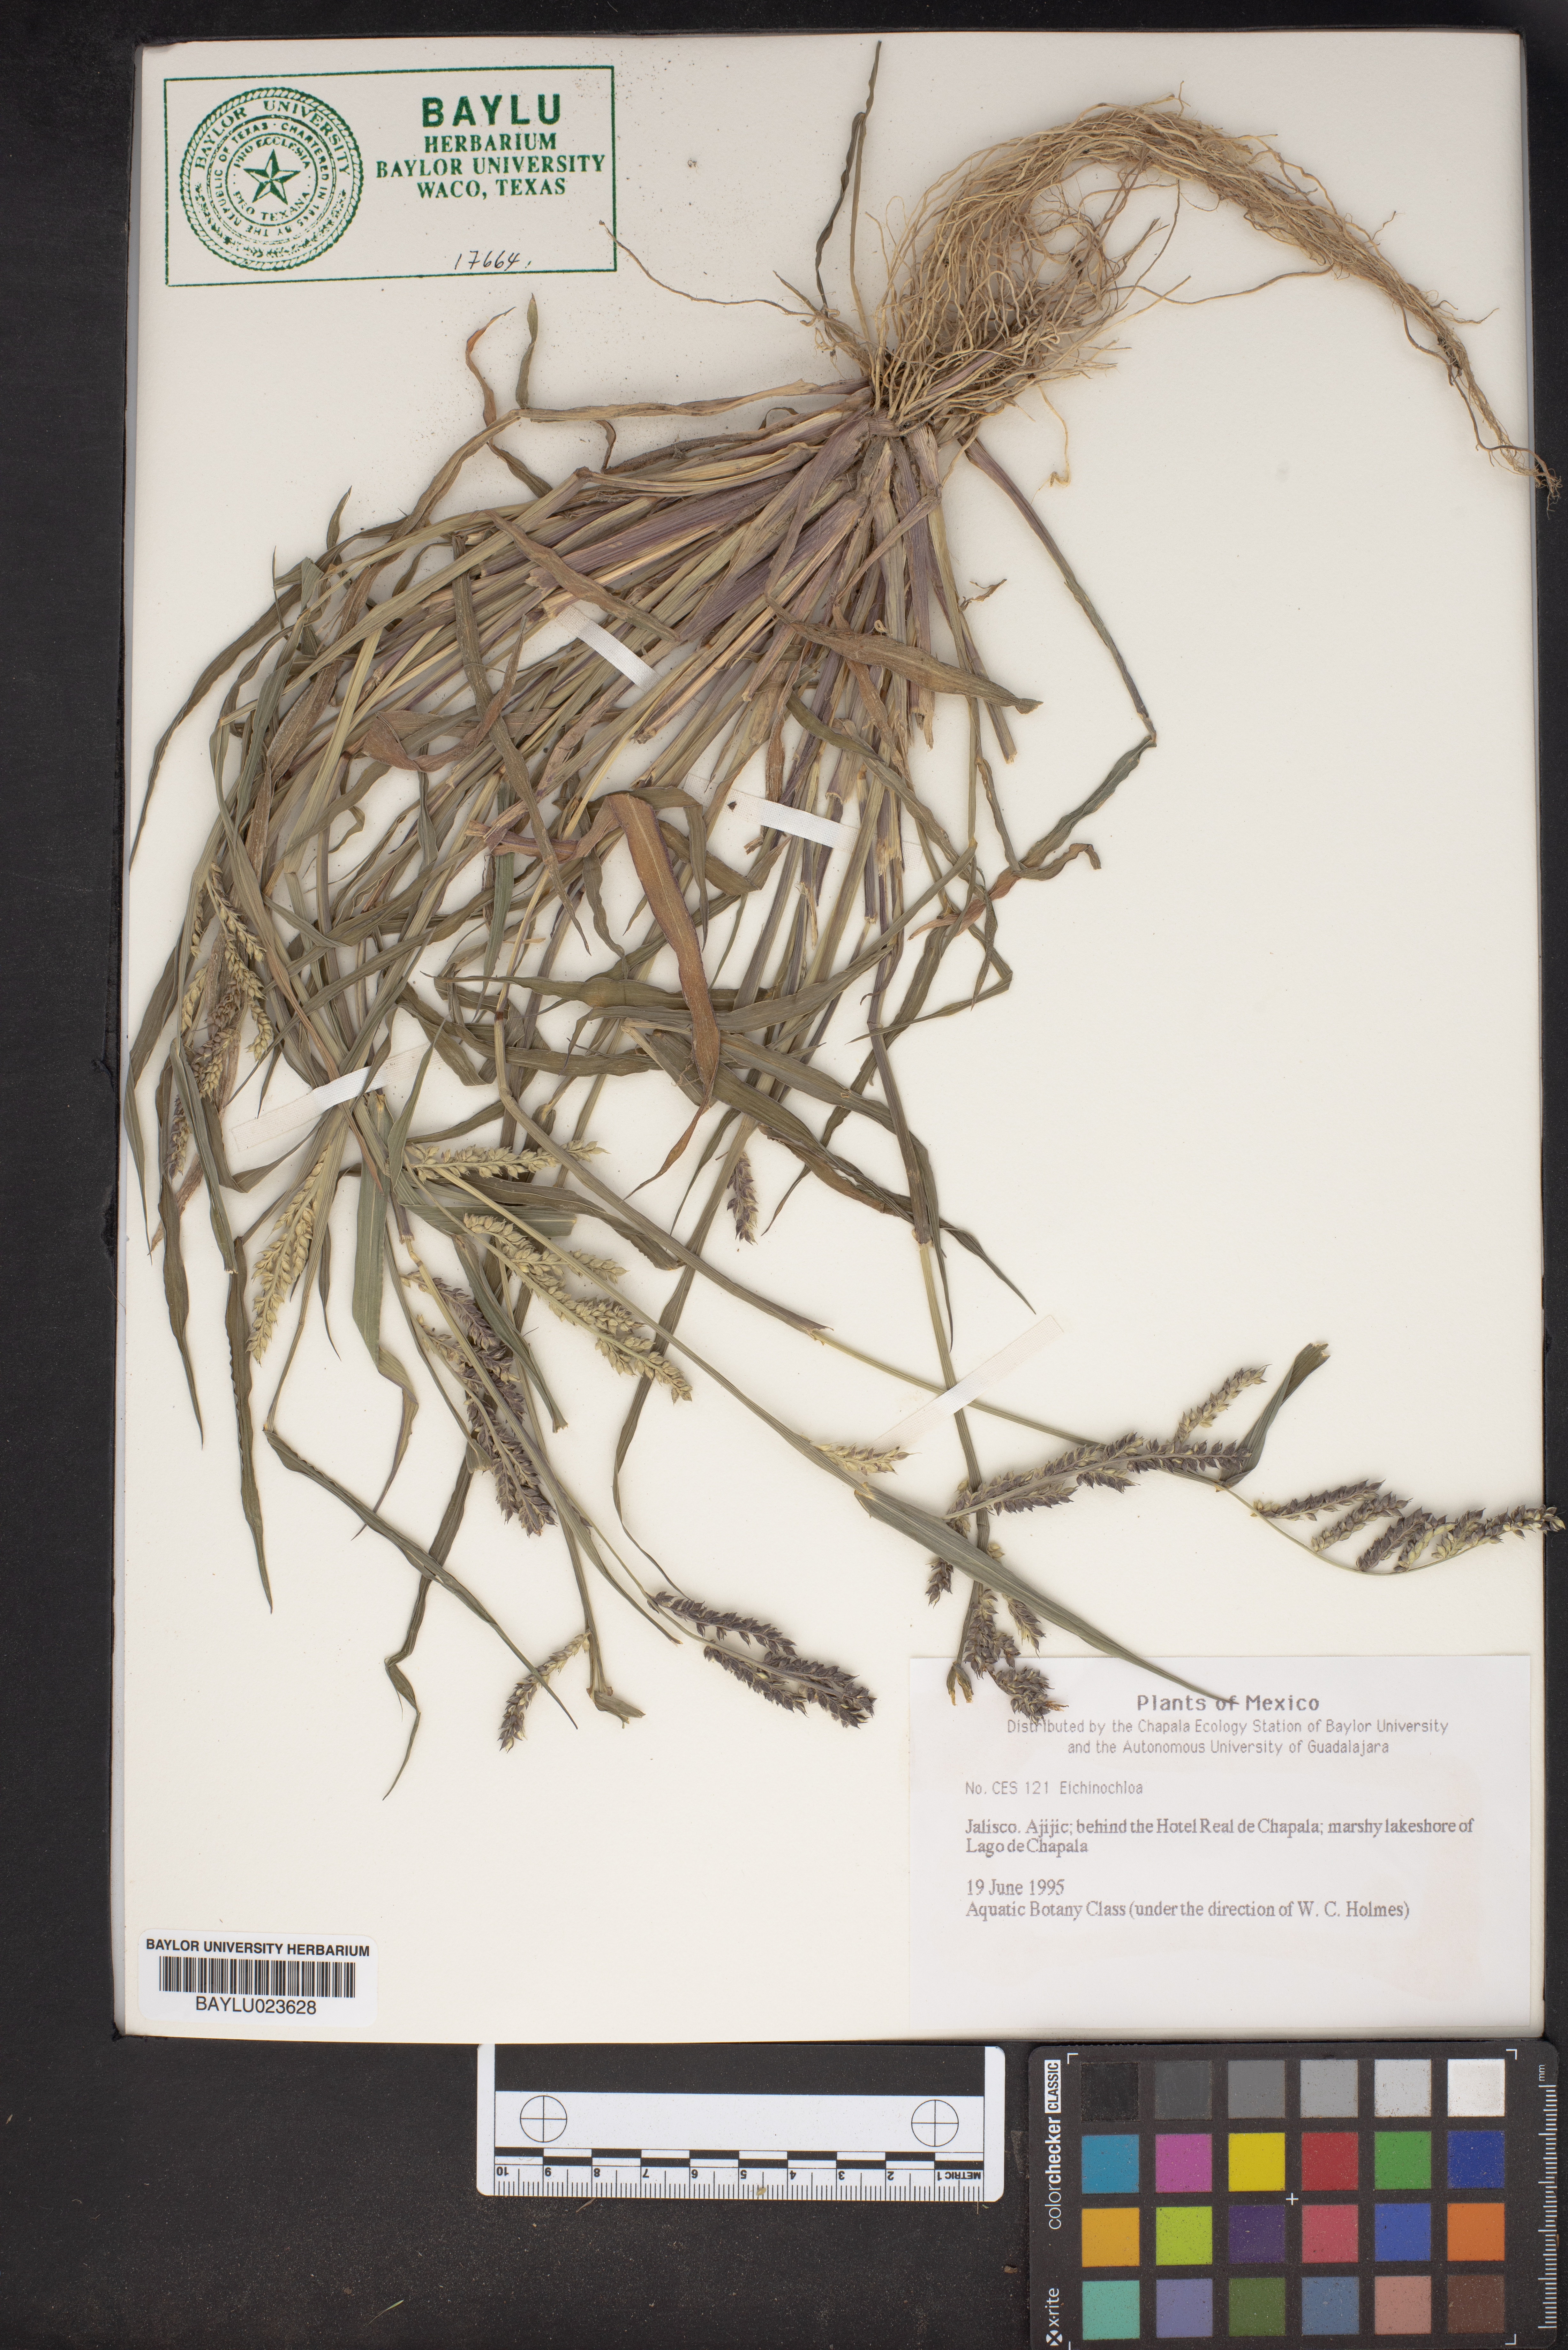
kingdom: Plantae
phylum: Tracheophyta
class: Liliopsida
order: Poales
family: Poaceae
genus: Echinochloa
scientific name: Echinochloa
